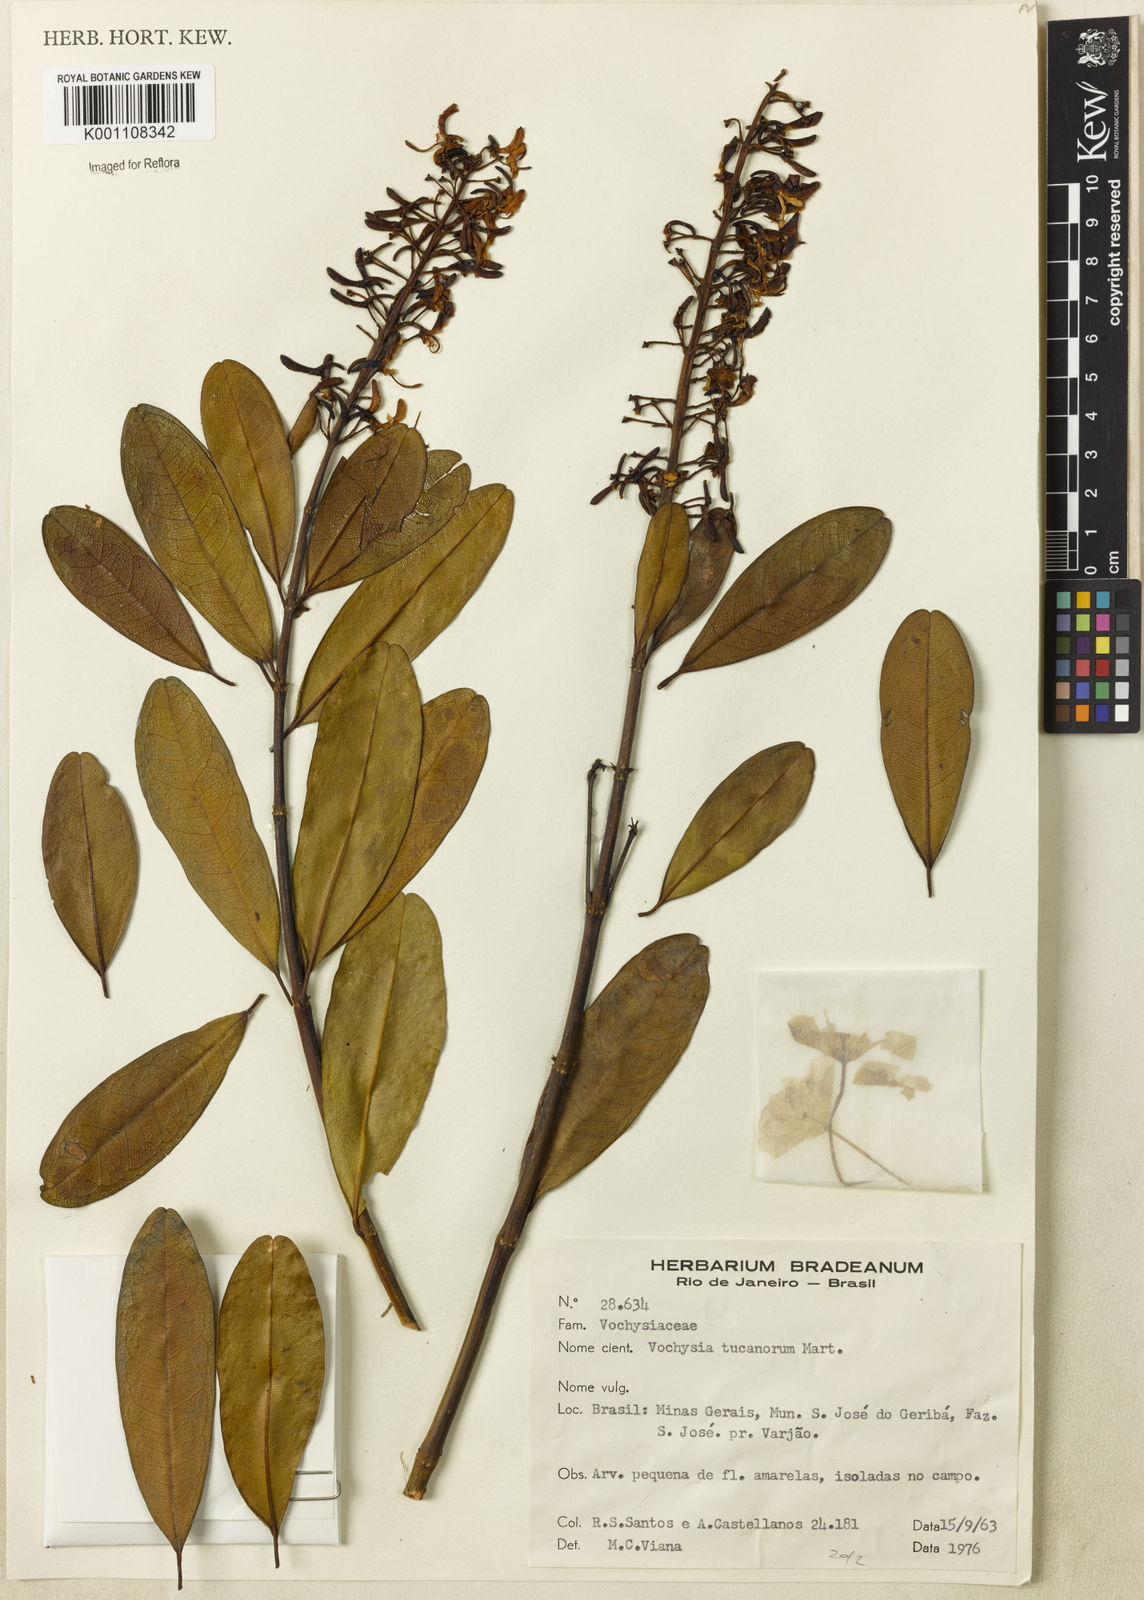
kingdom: Plantae
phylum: Tracheophyta
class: Magnoliopsida
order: Myrtales
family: Vochysiaceae
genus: Vochysia
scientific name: Vochysia tucanorum
